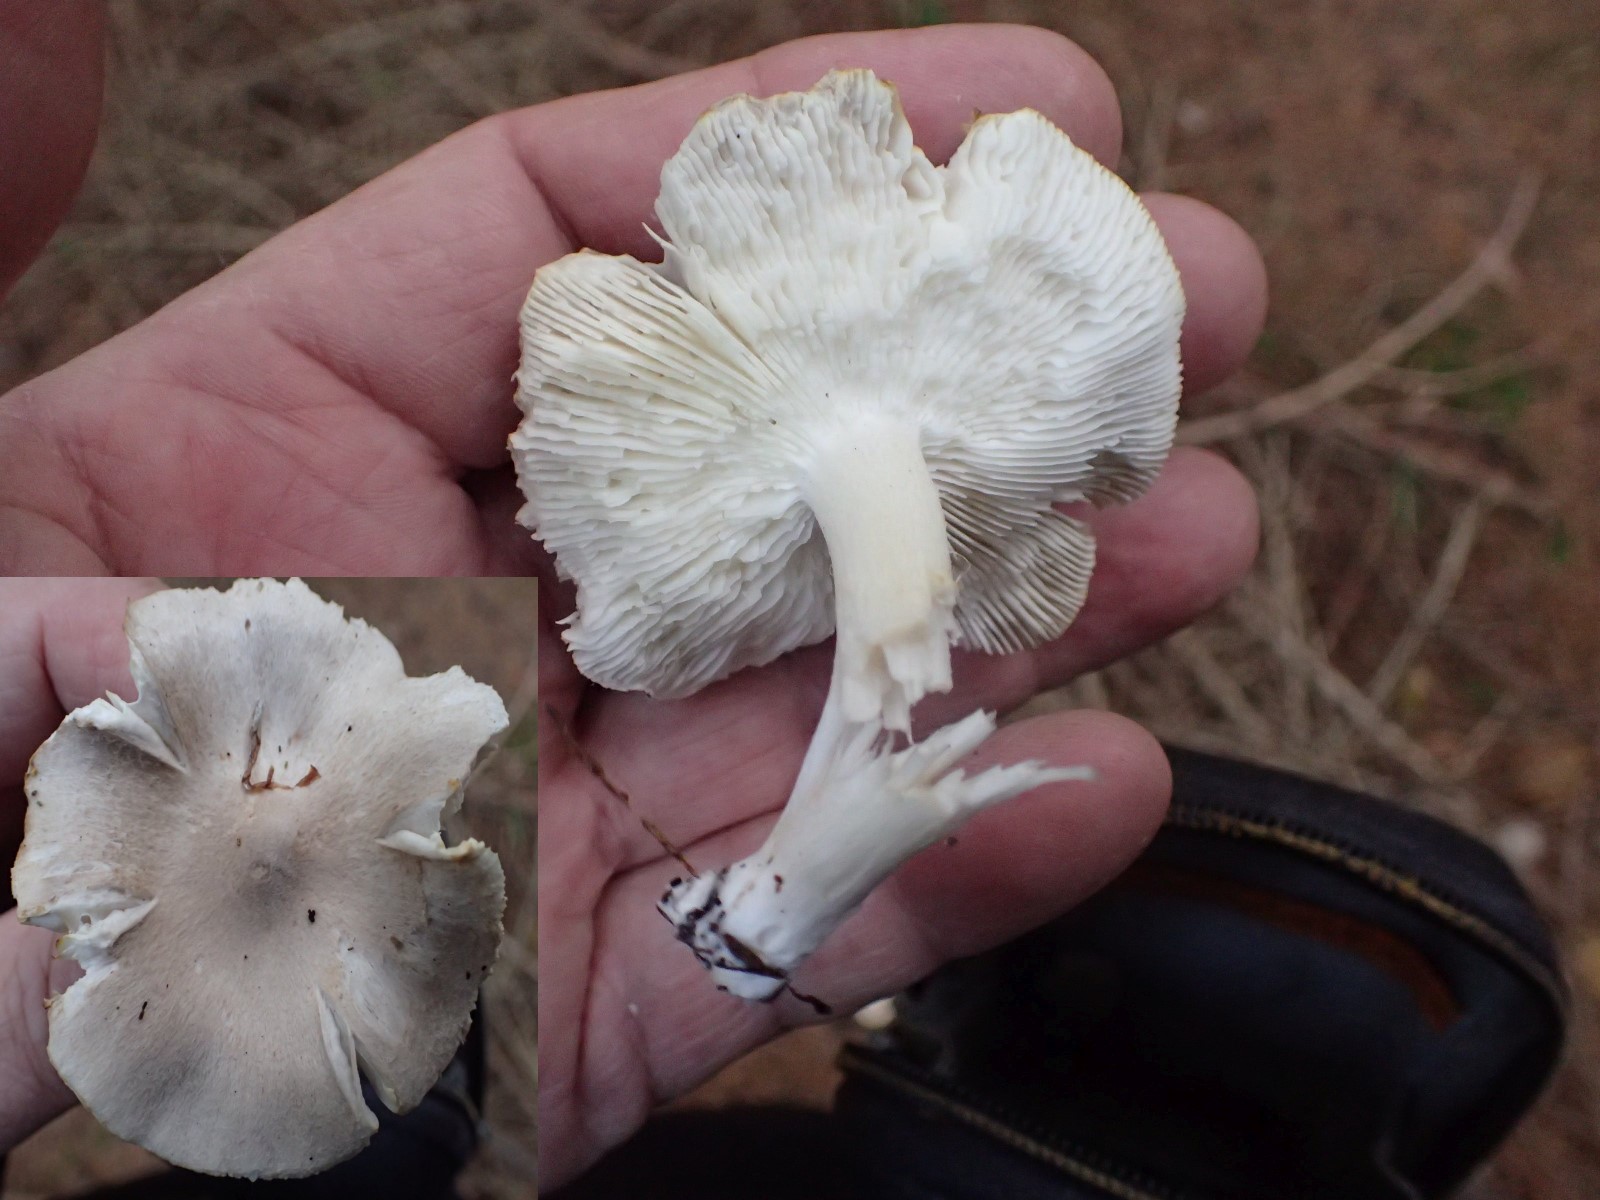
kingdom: Fungi
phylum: Basidiomycota
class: Agaricomycetes
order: Agaricales
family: Tricholomataceae
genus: Tricholoma
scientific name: Tricholoma scalpturatum
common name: gulplettet ridderhat
